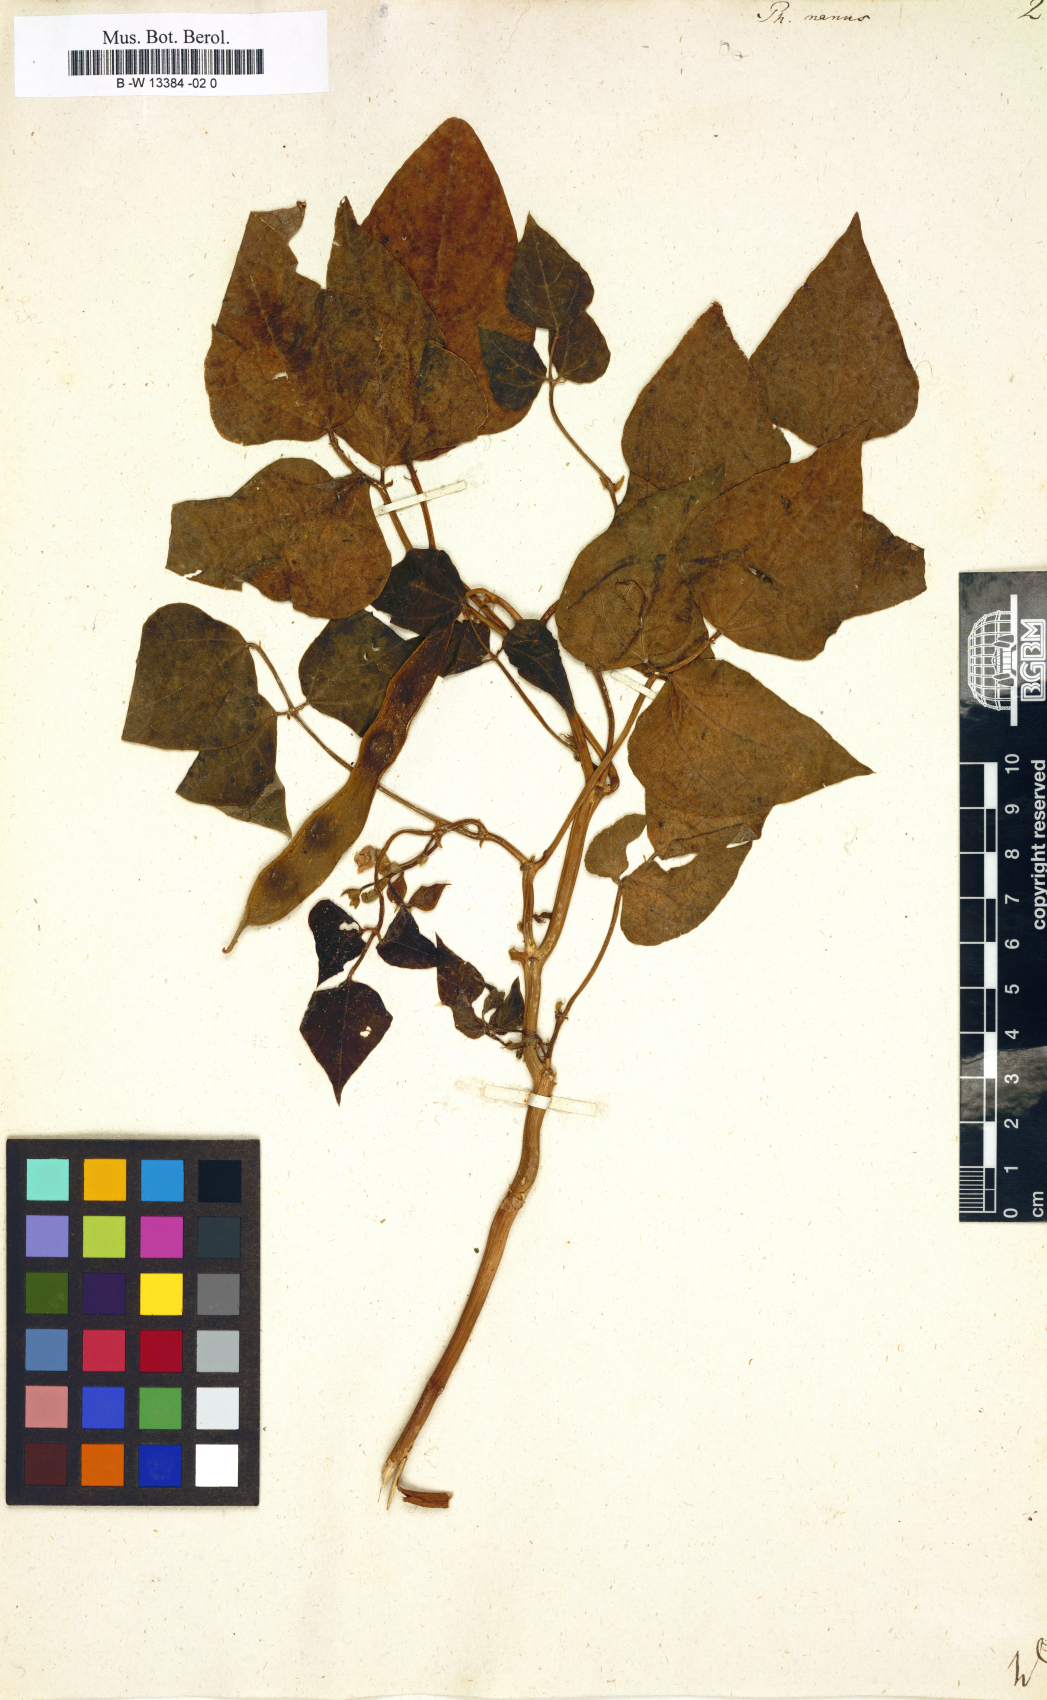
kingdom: Plantae
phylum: Tracheophyta
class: Magnoliopsida
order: Fabales
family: Fabaceae
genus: Phaseolus
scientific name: Phaseolus vulgaris
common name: Bean
